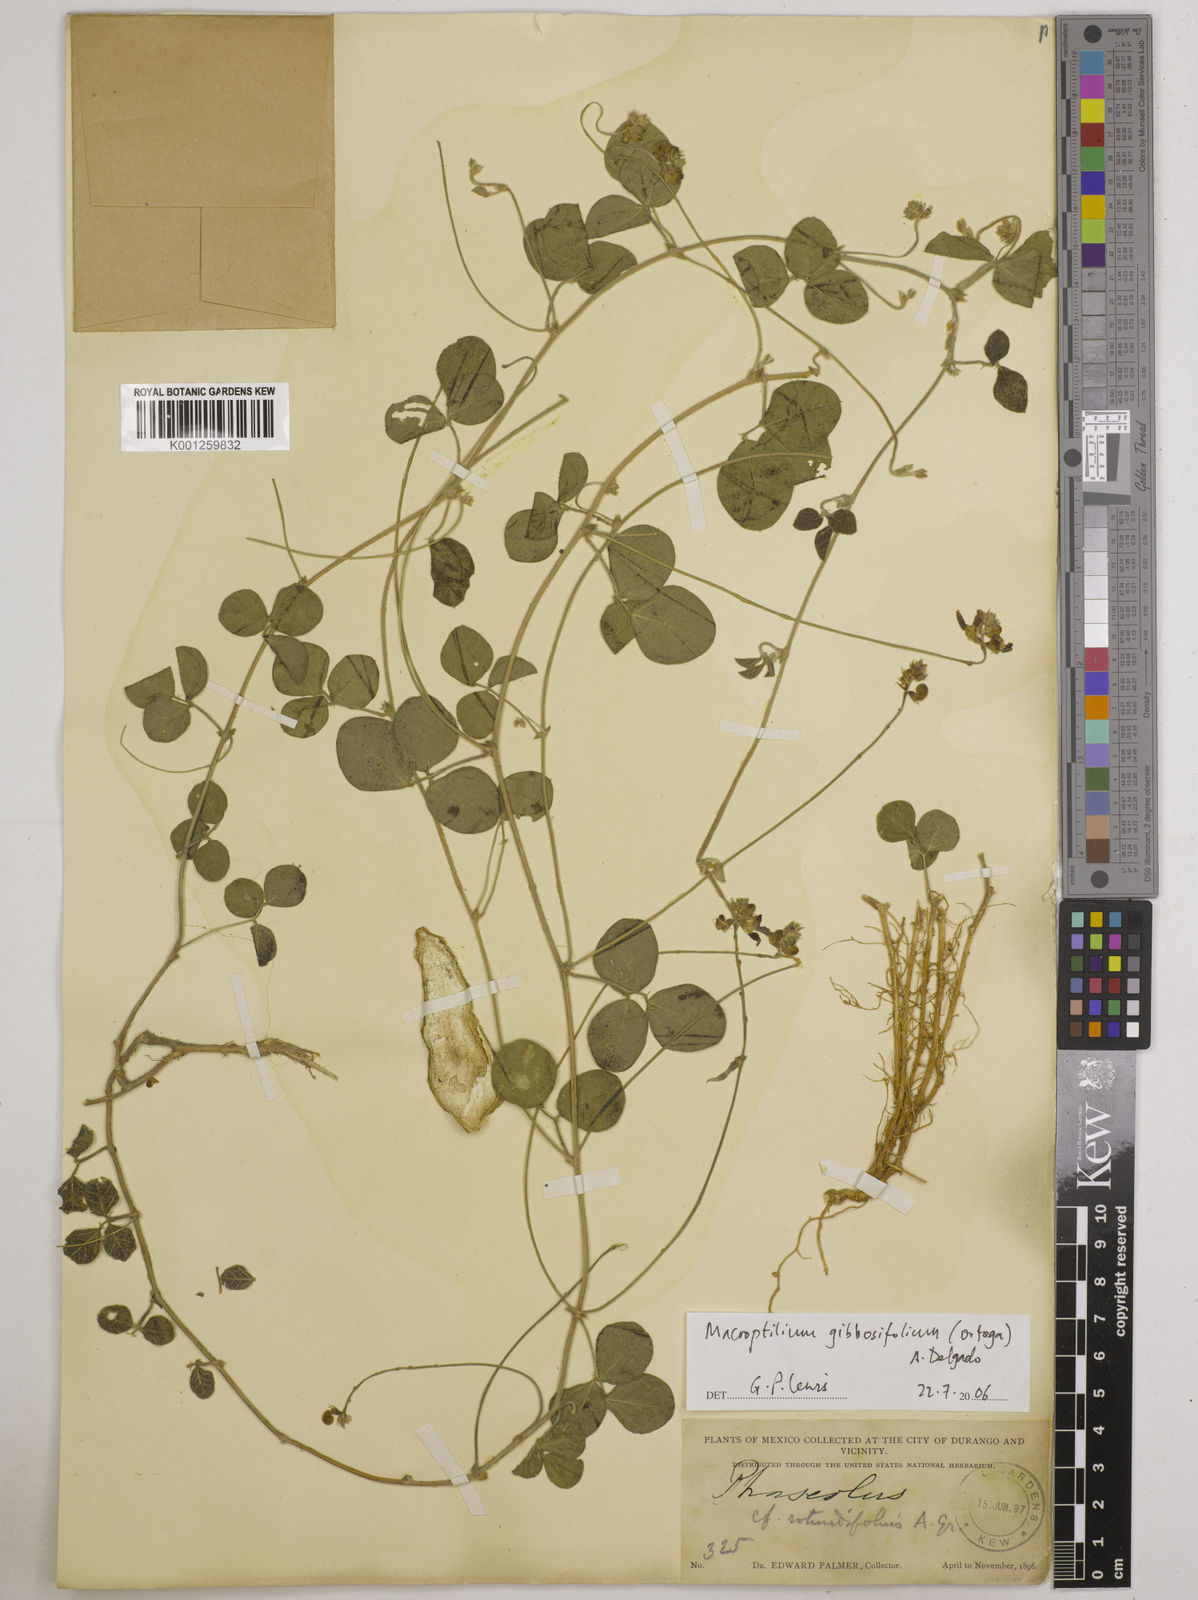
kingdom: Plantae
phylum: Tracheophyta
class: Magnoliopsida
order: Fabales
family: Fabaceae
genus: Macroptilium
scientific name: Macroptilium gibbosifolium
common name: Variableleaf bushbean
